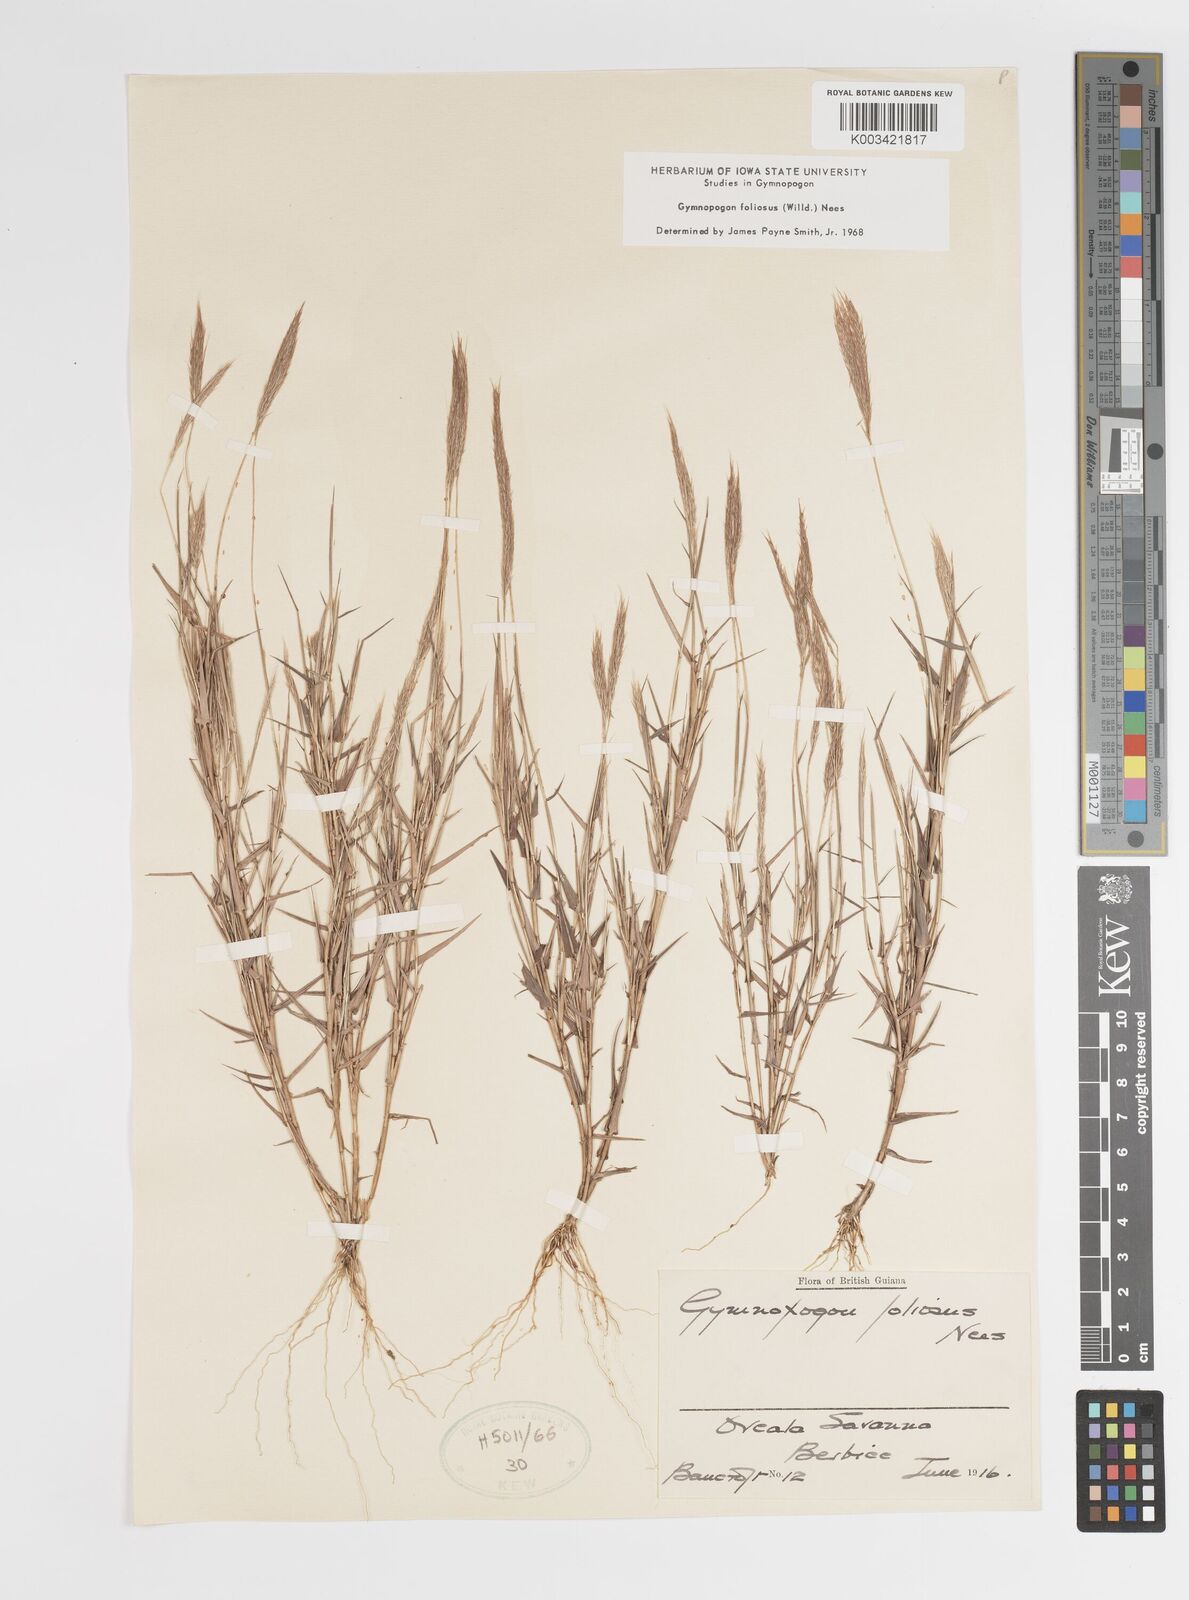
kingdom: Plantae
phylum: Tracheophyta
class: Liliopsida
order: Poales
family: Poaceae
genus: Gymnopogon
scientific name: Gymnopogon foliosus
